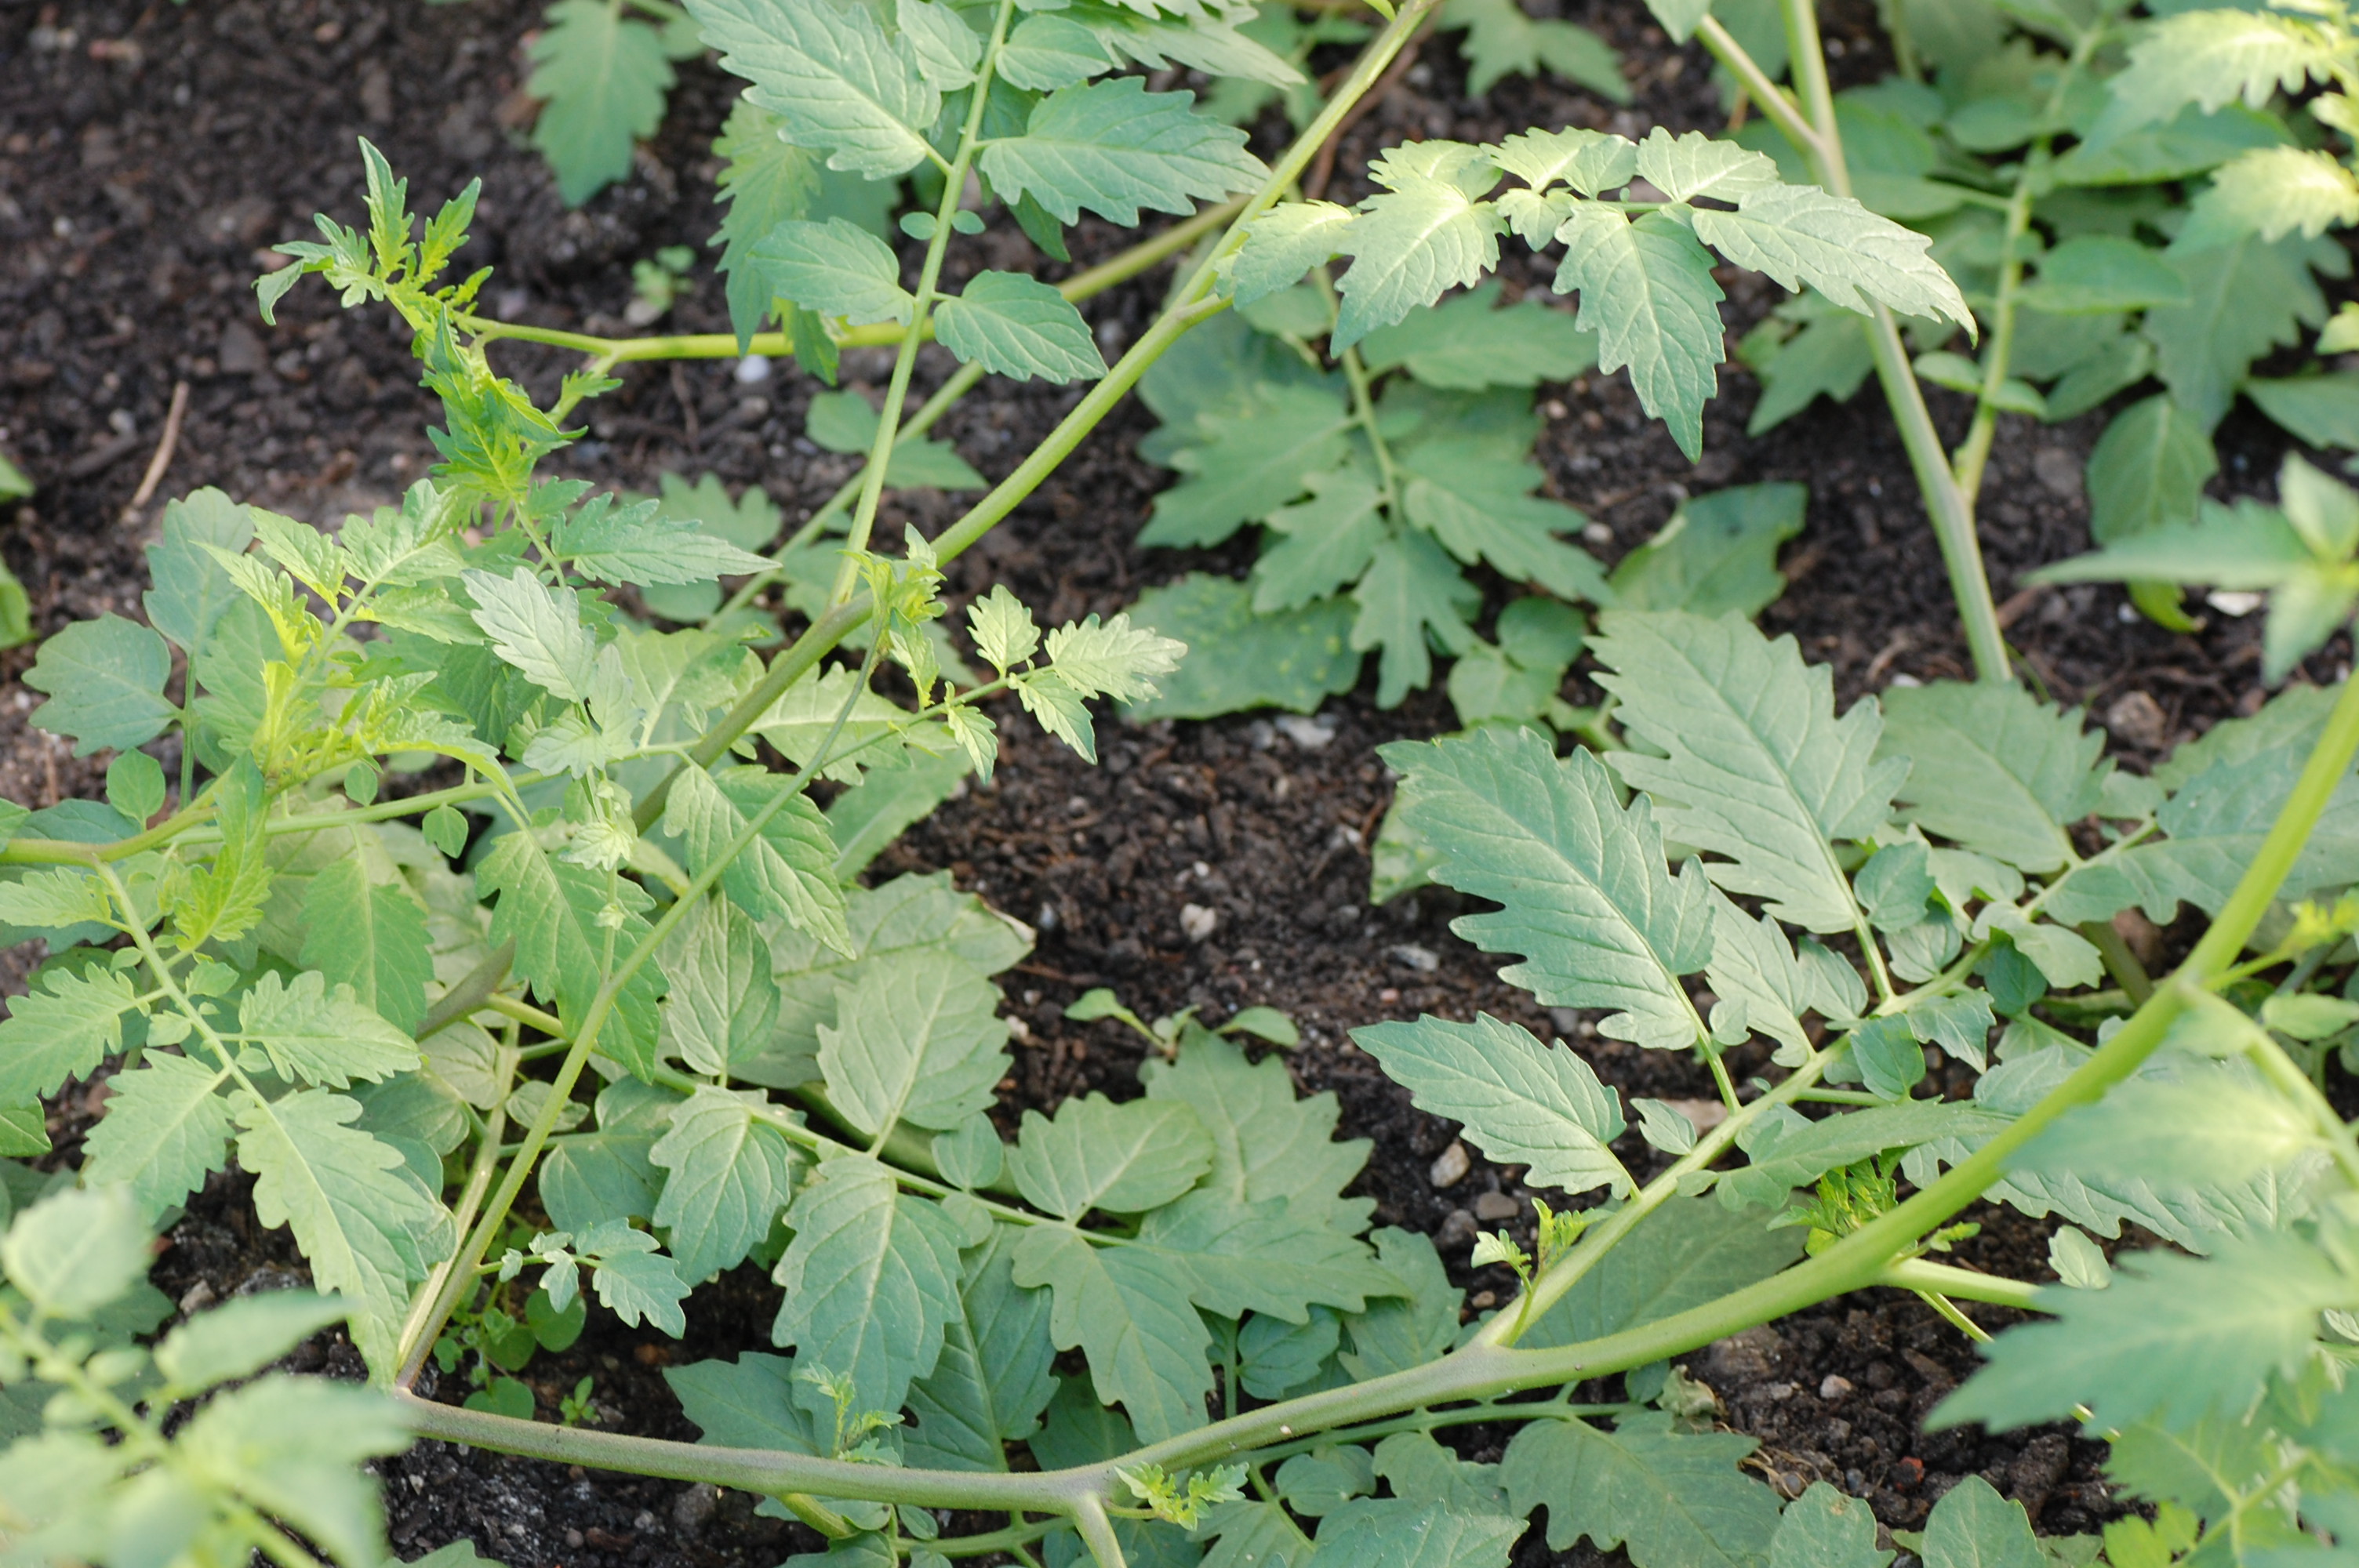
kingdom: Plantae
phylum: Tracheophyta
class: Magnoliopsida
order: Solanales
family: Solanaceae
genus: Solanum
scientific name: Solanum peruvianum
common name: Peruvian nightshade
